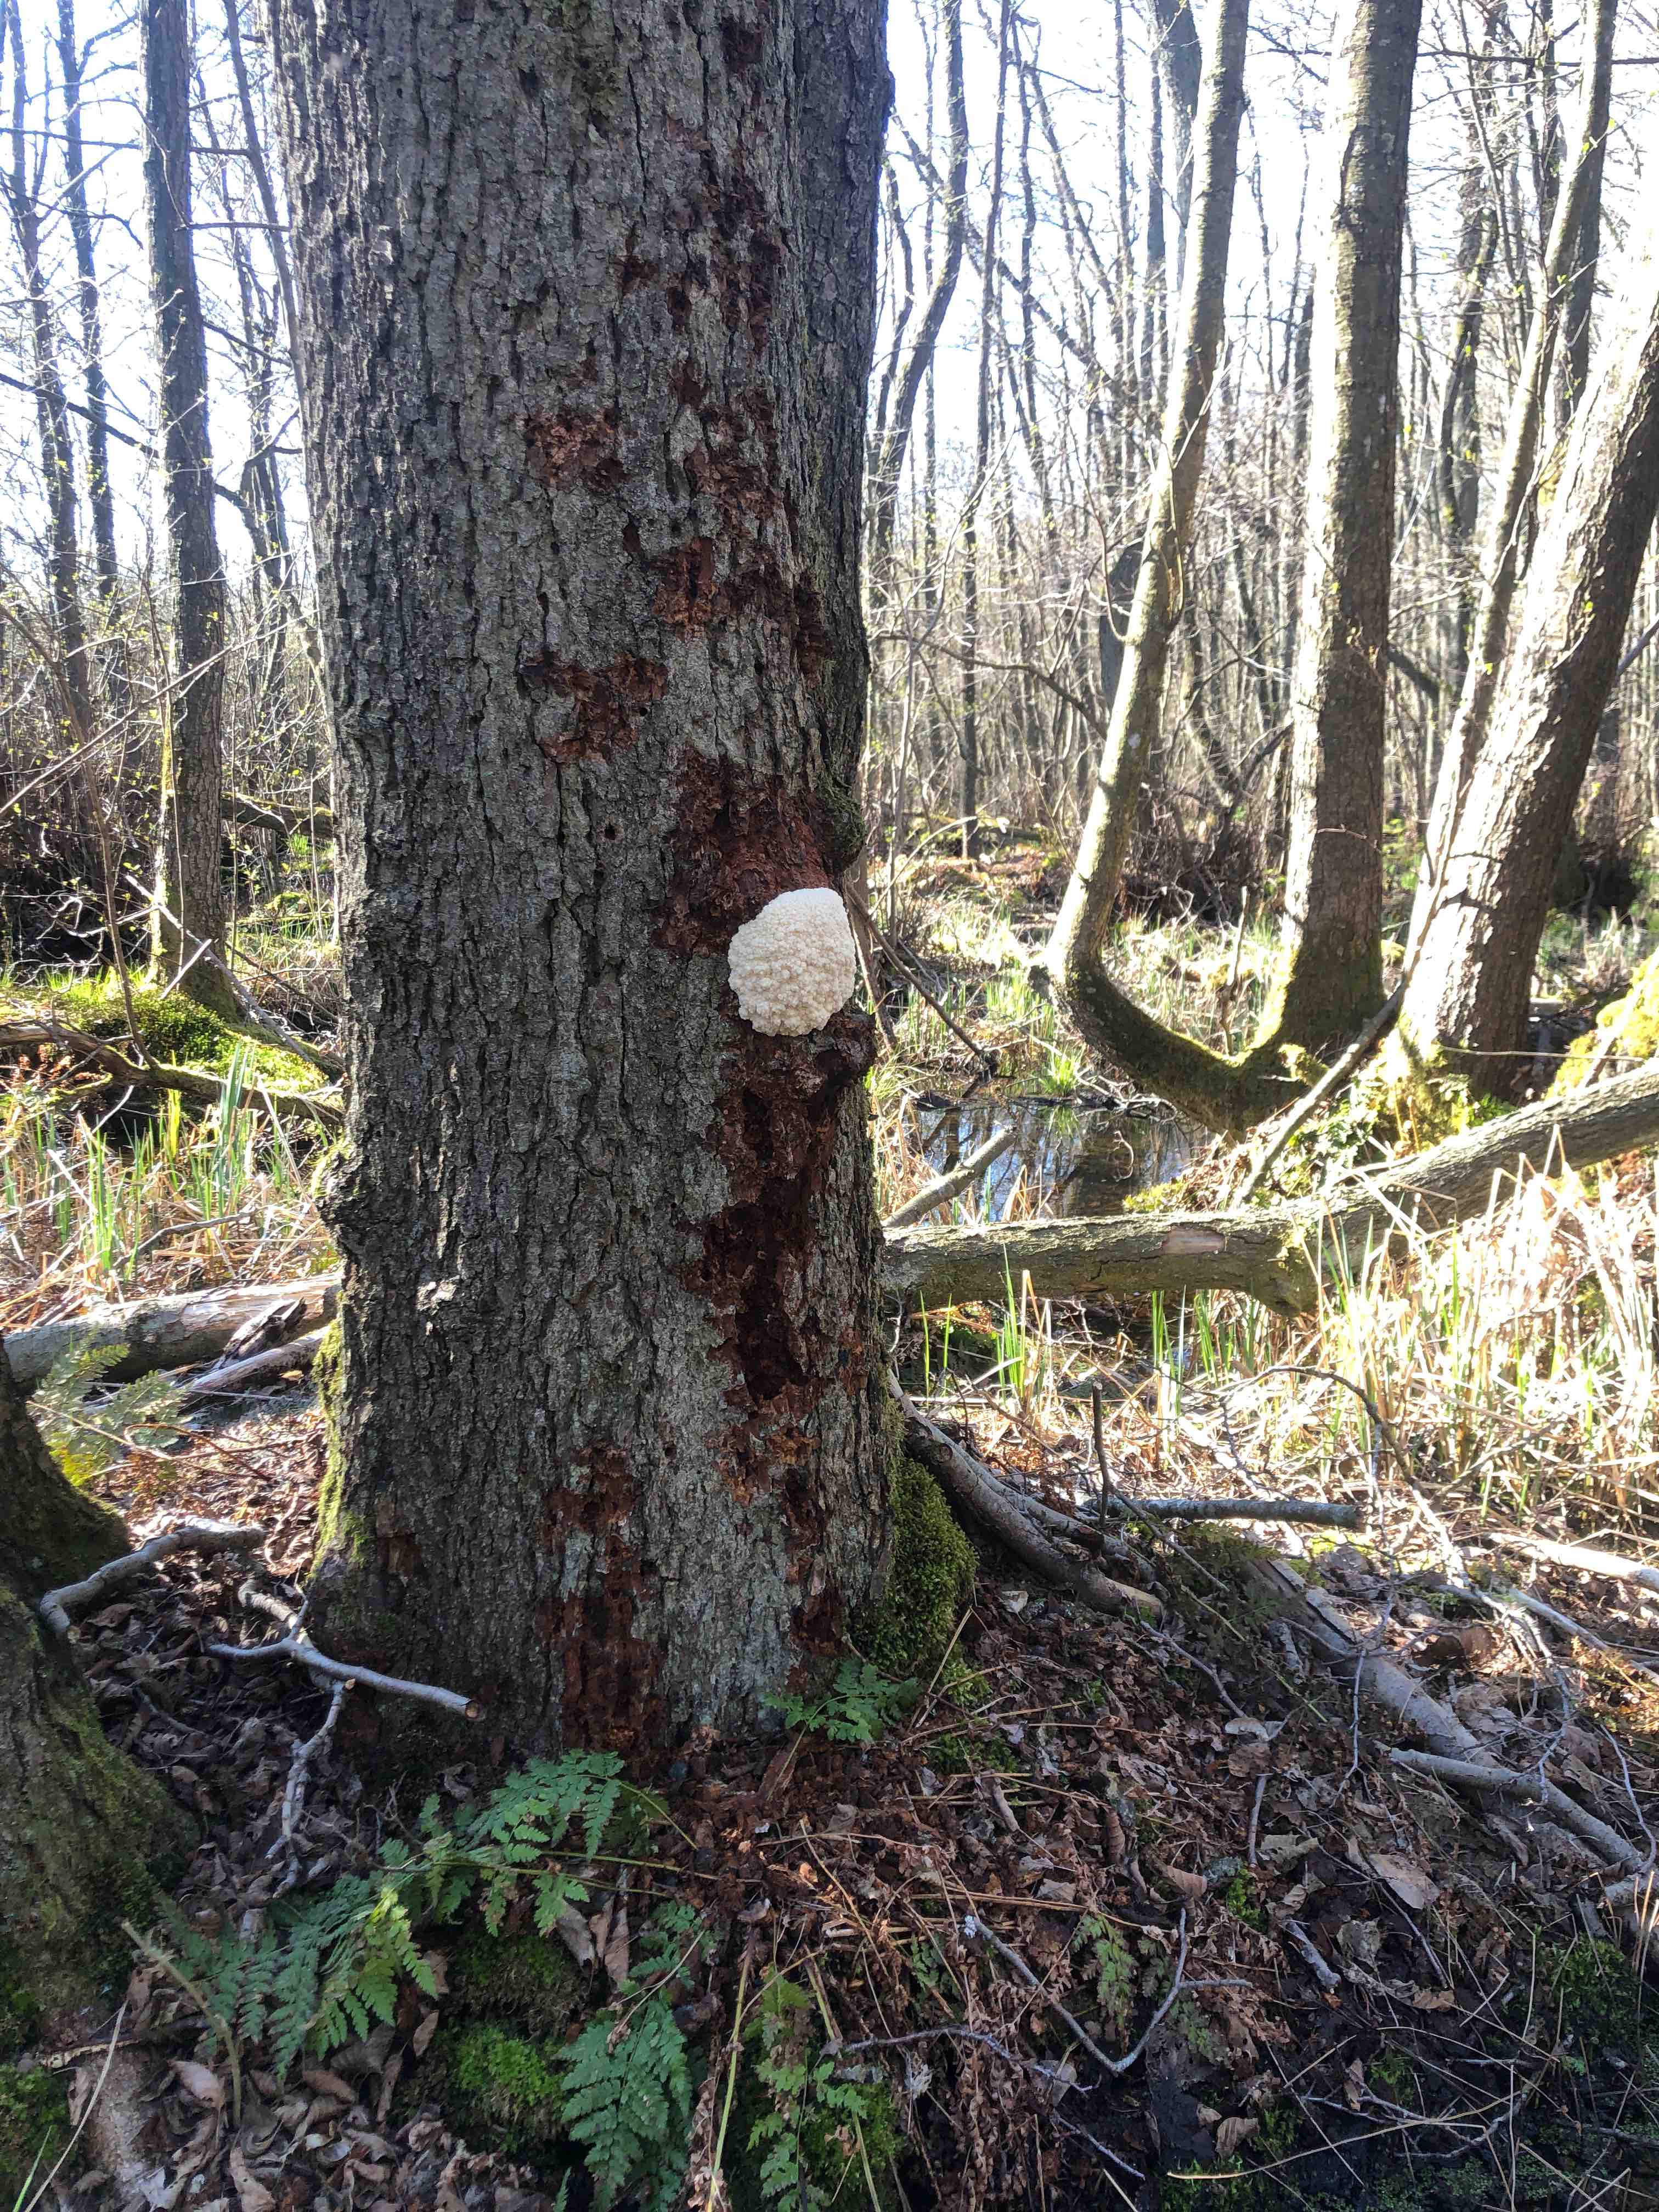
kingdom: Protozoa
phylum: Mycetozoa
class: Myxomycetes
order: Cribrariales
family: Tubiferaceae
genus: Reticularia
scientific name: Reticularia lycoperdon
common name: skinnende støvpude
